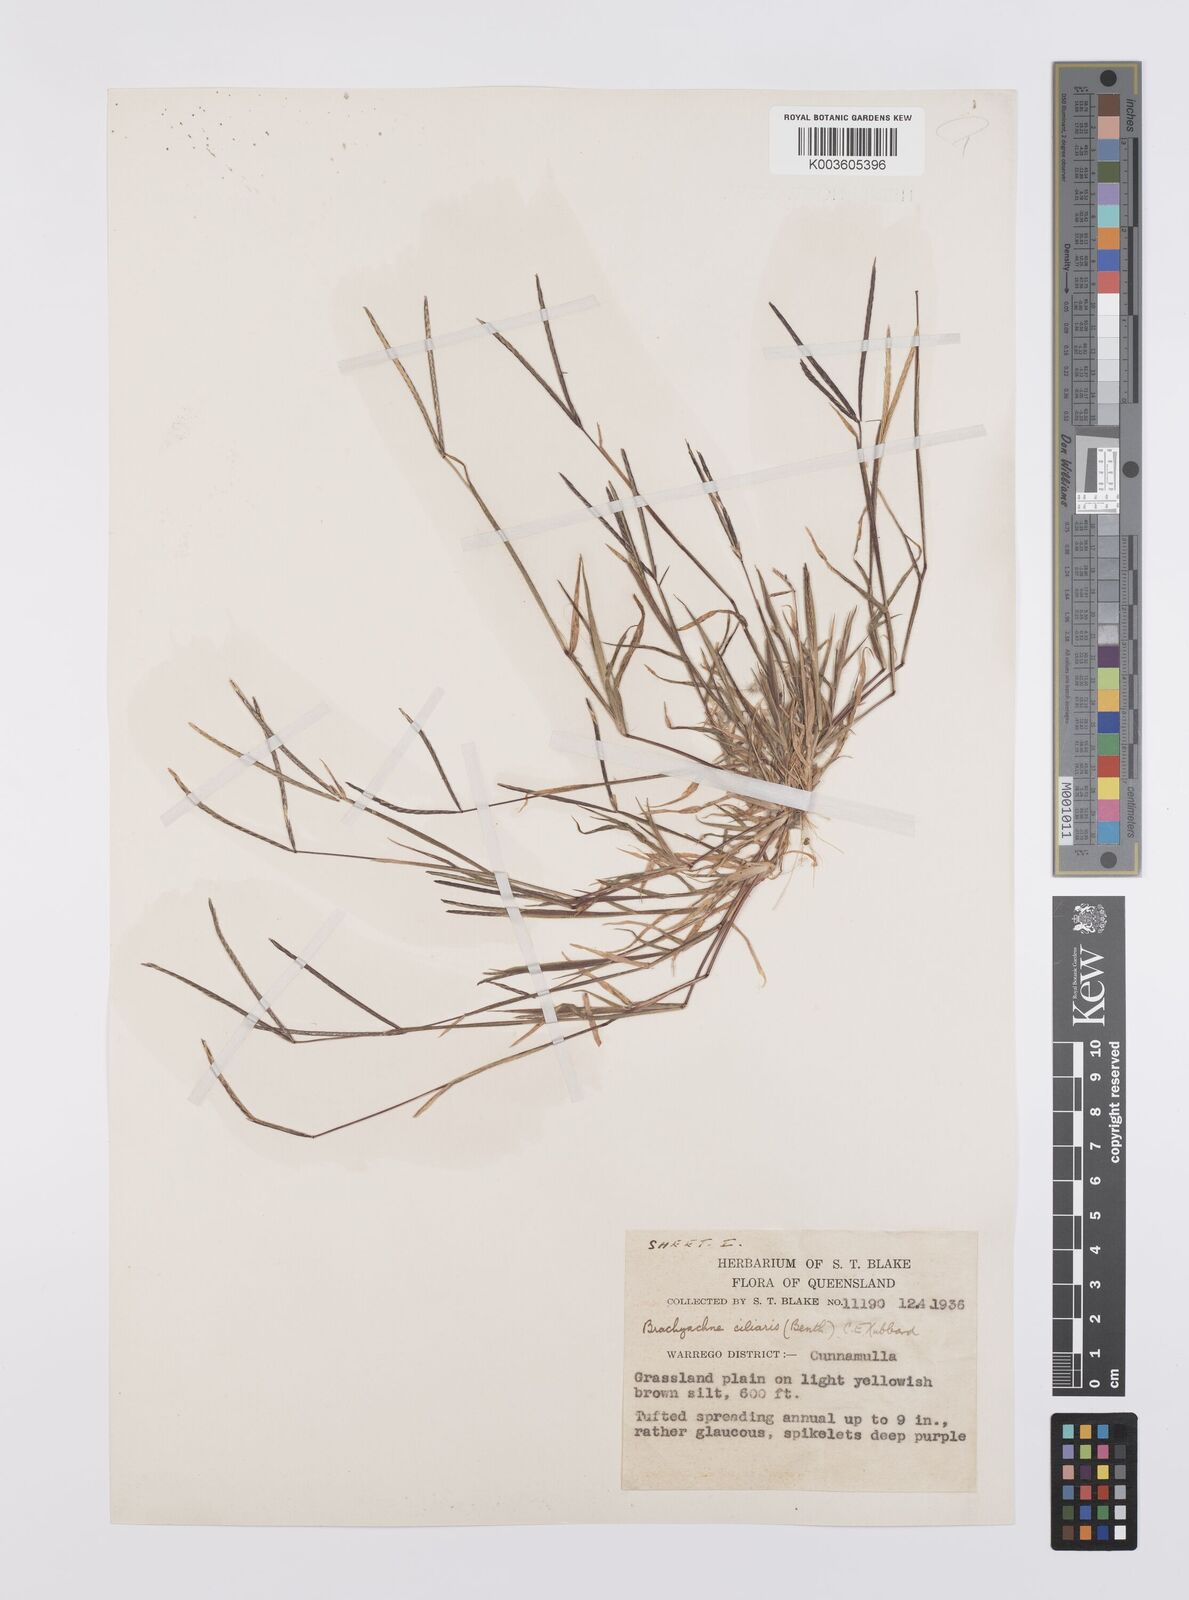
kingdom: Plantae
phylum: Tracheophyta
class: Liliopsida
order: Poales
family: Poaceae
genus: Cynodon
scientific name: Cynodon simonii
